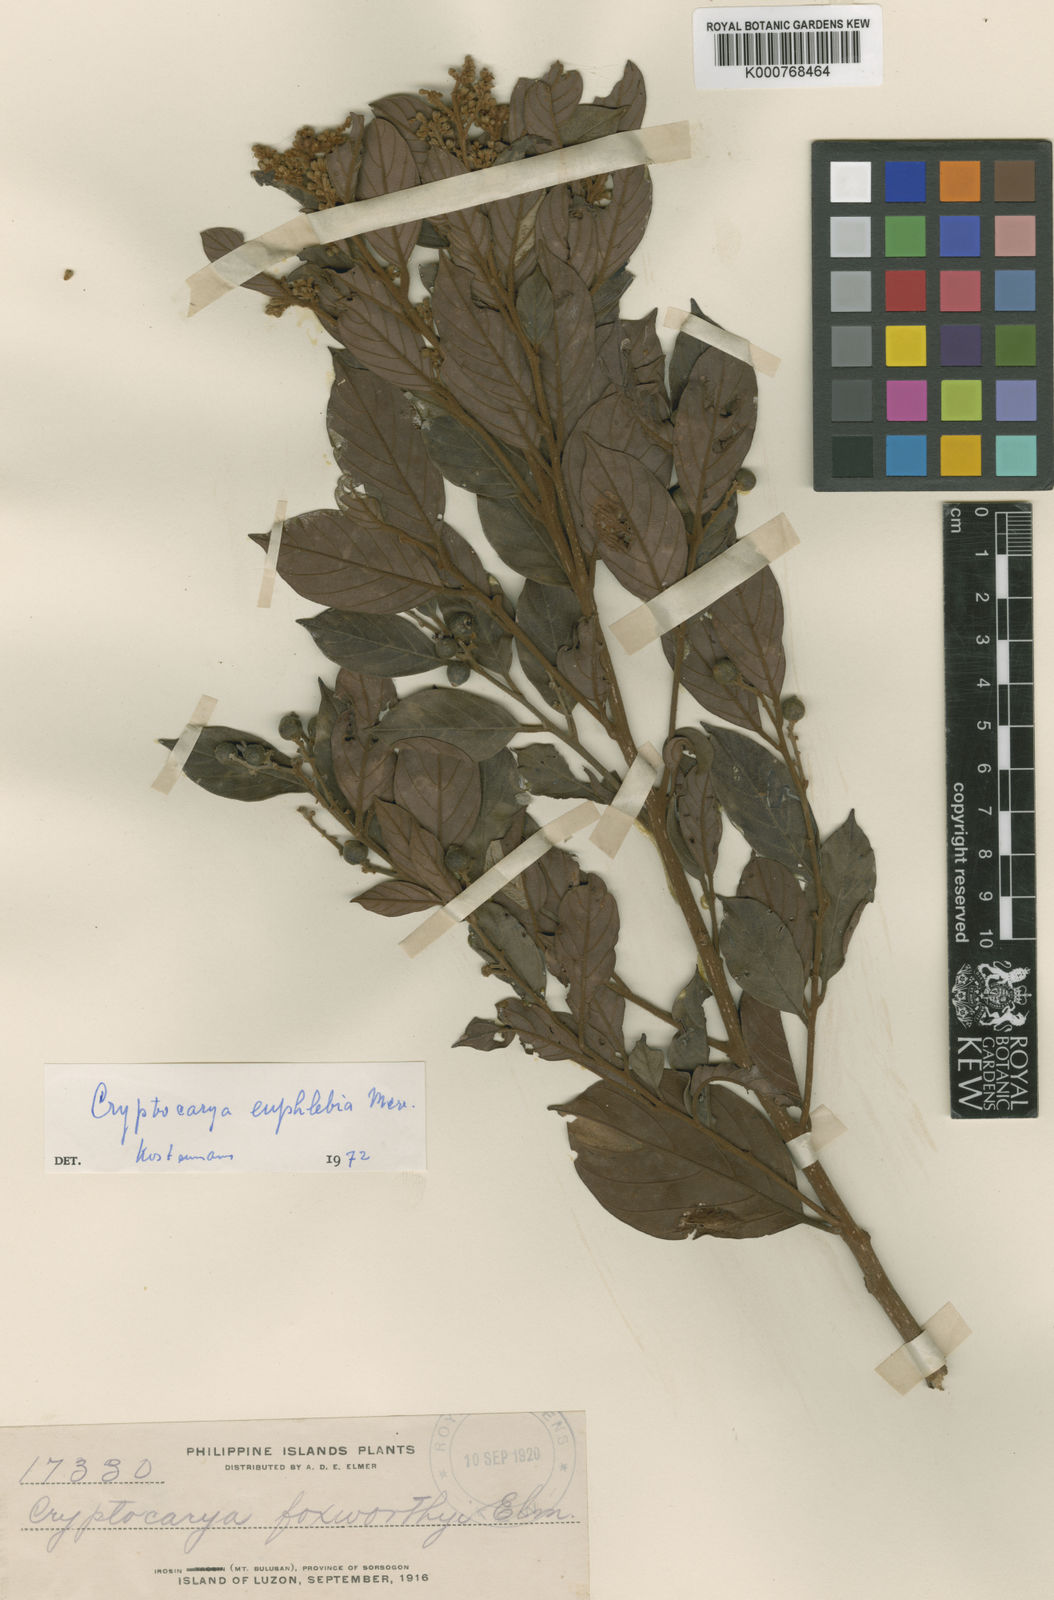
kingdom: Plantae
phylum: Tracheophyta
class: Magnoliopsida
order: Laurales
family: Lauraceae
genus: Cryptocarya
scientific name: Cryptocarya euphlebia
